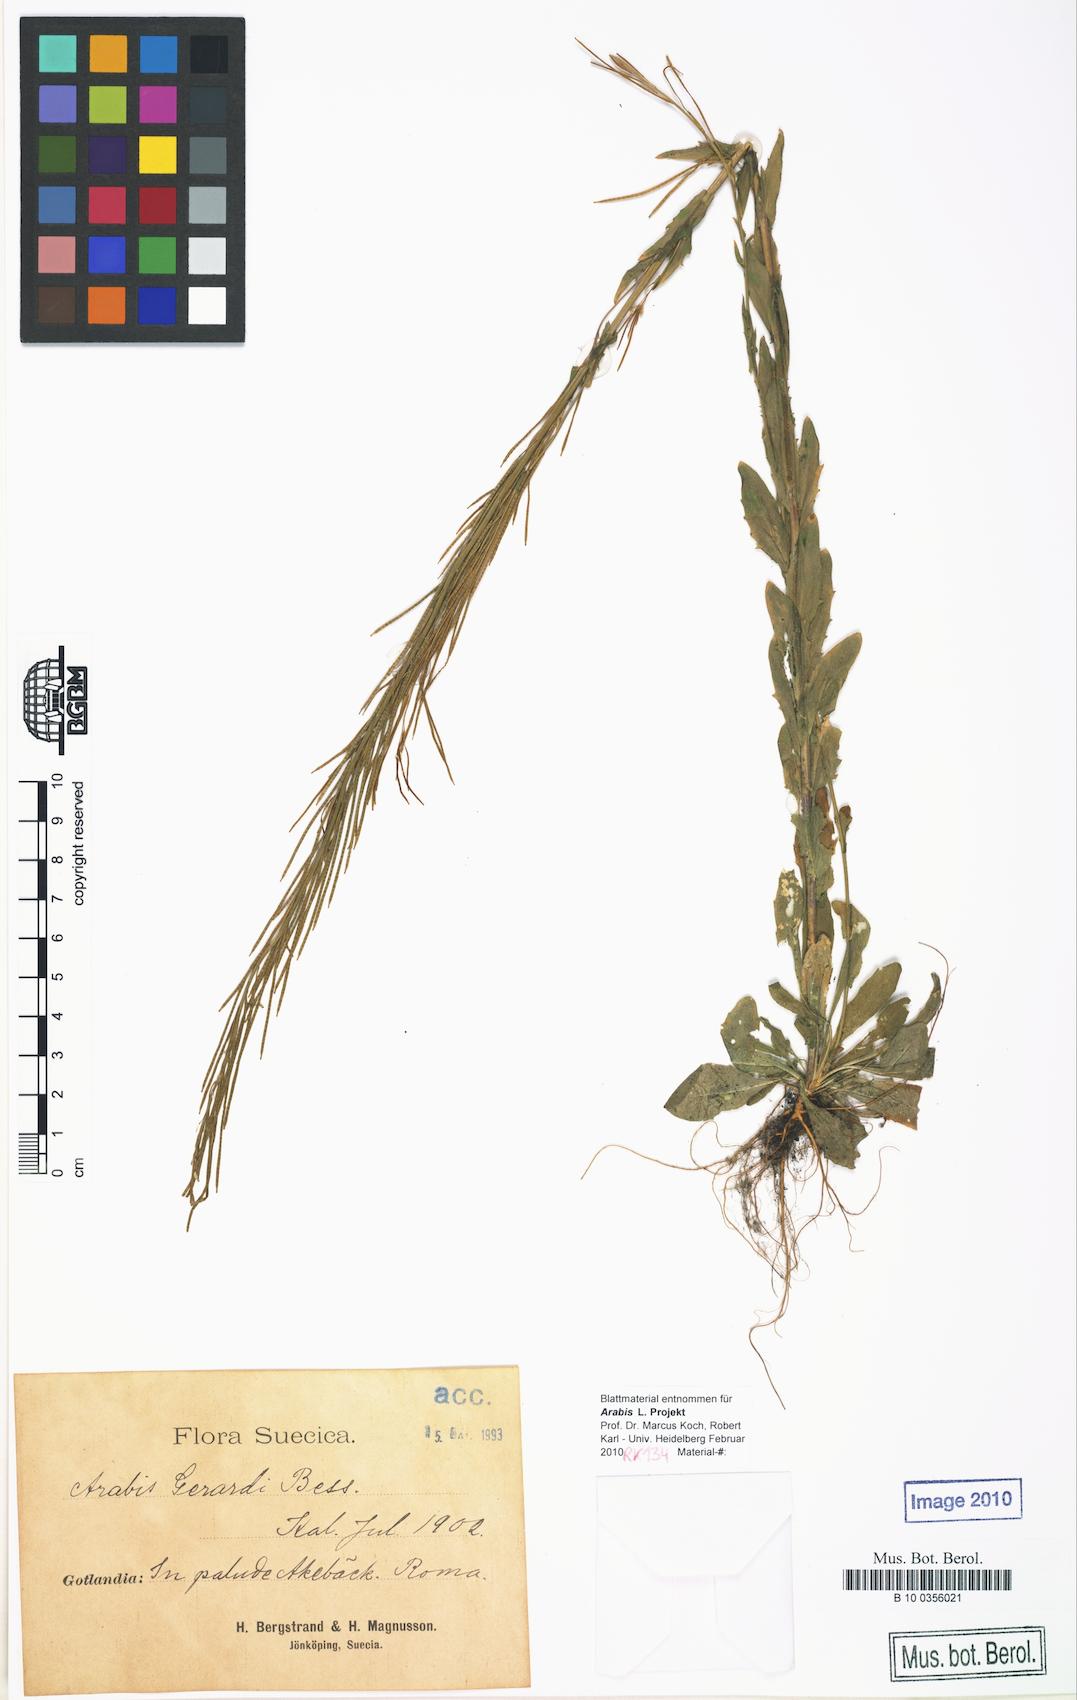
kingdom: Plantae
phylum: Tracheophyta
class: Magnoliopsida
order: Brassicales
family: Brassicaceae
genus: Arabis
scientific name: Arabis planisiliqua
